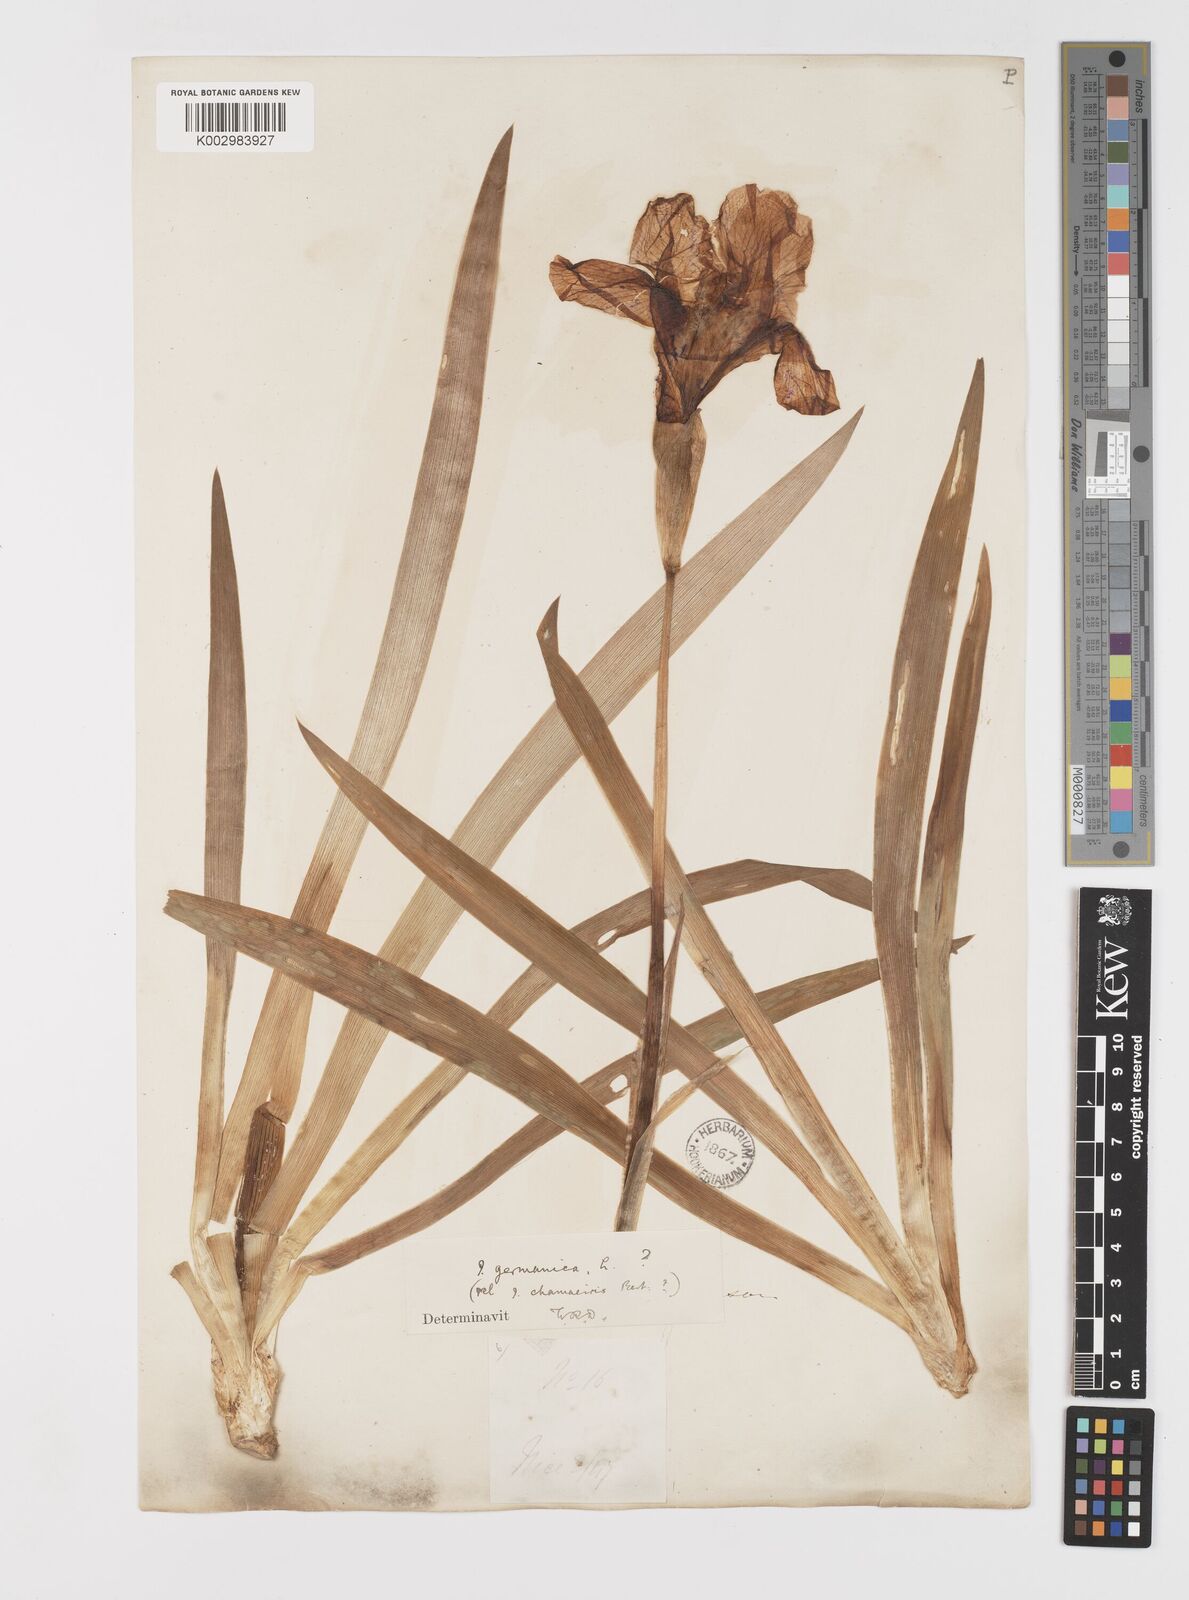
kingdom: Plantae
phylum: Tracheophyta
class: Liliopsida
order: Asparagales
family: Iridaceae
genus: Iris
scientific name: Iris germanica
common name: German iris
